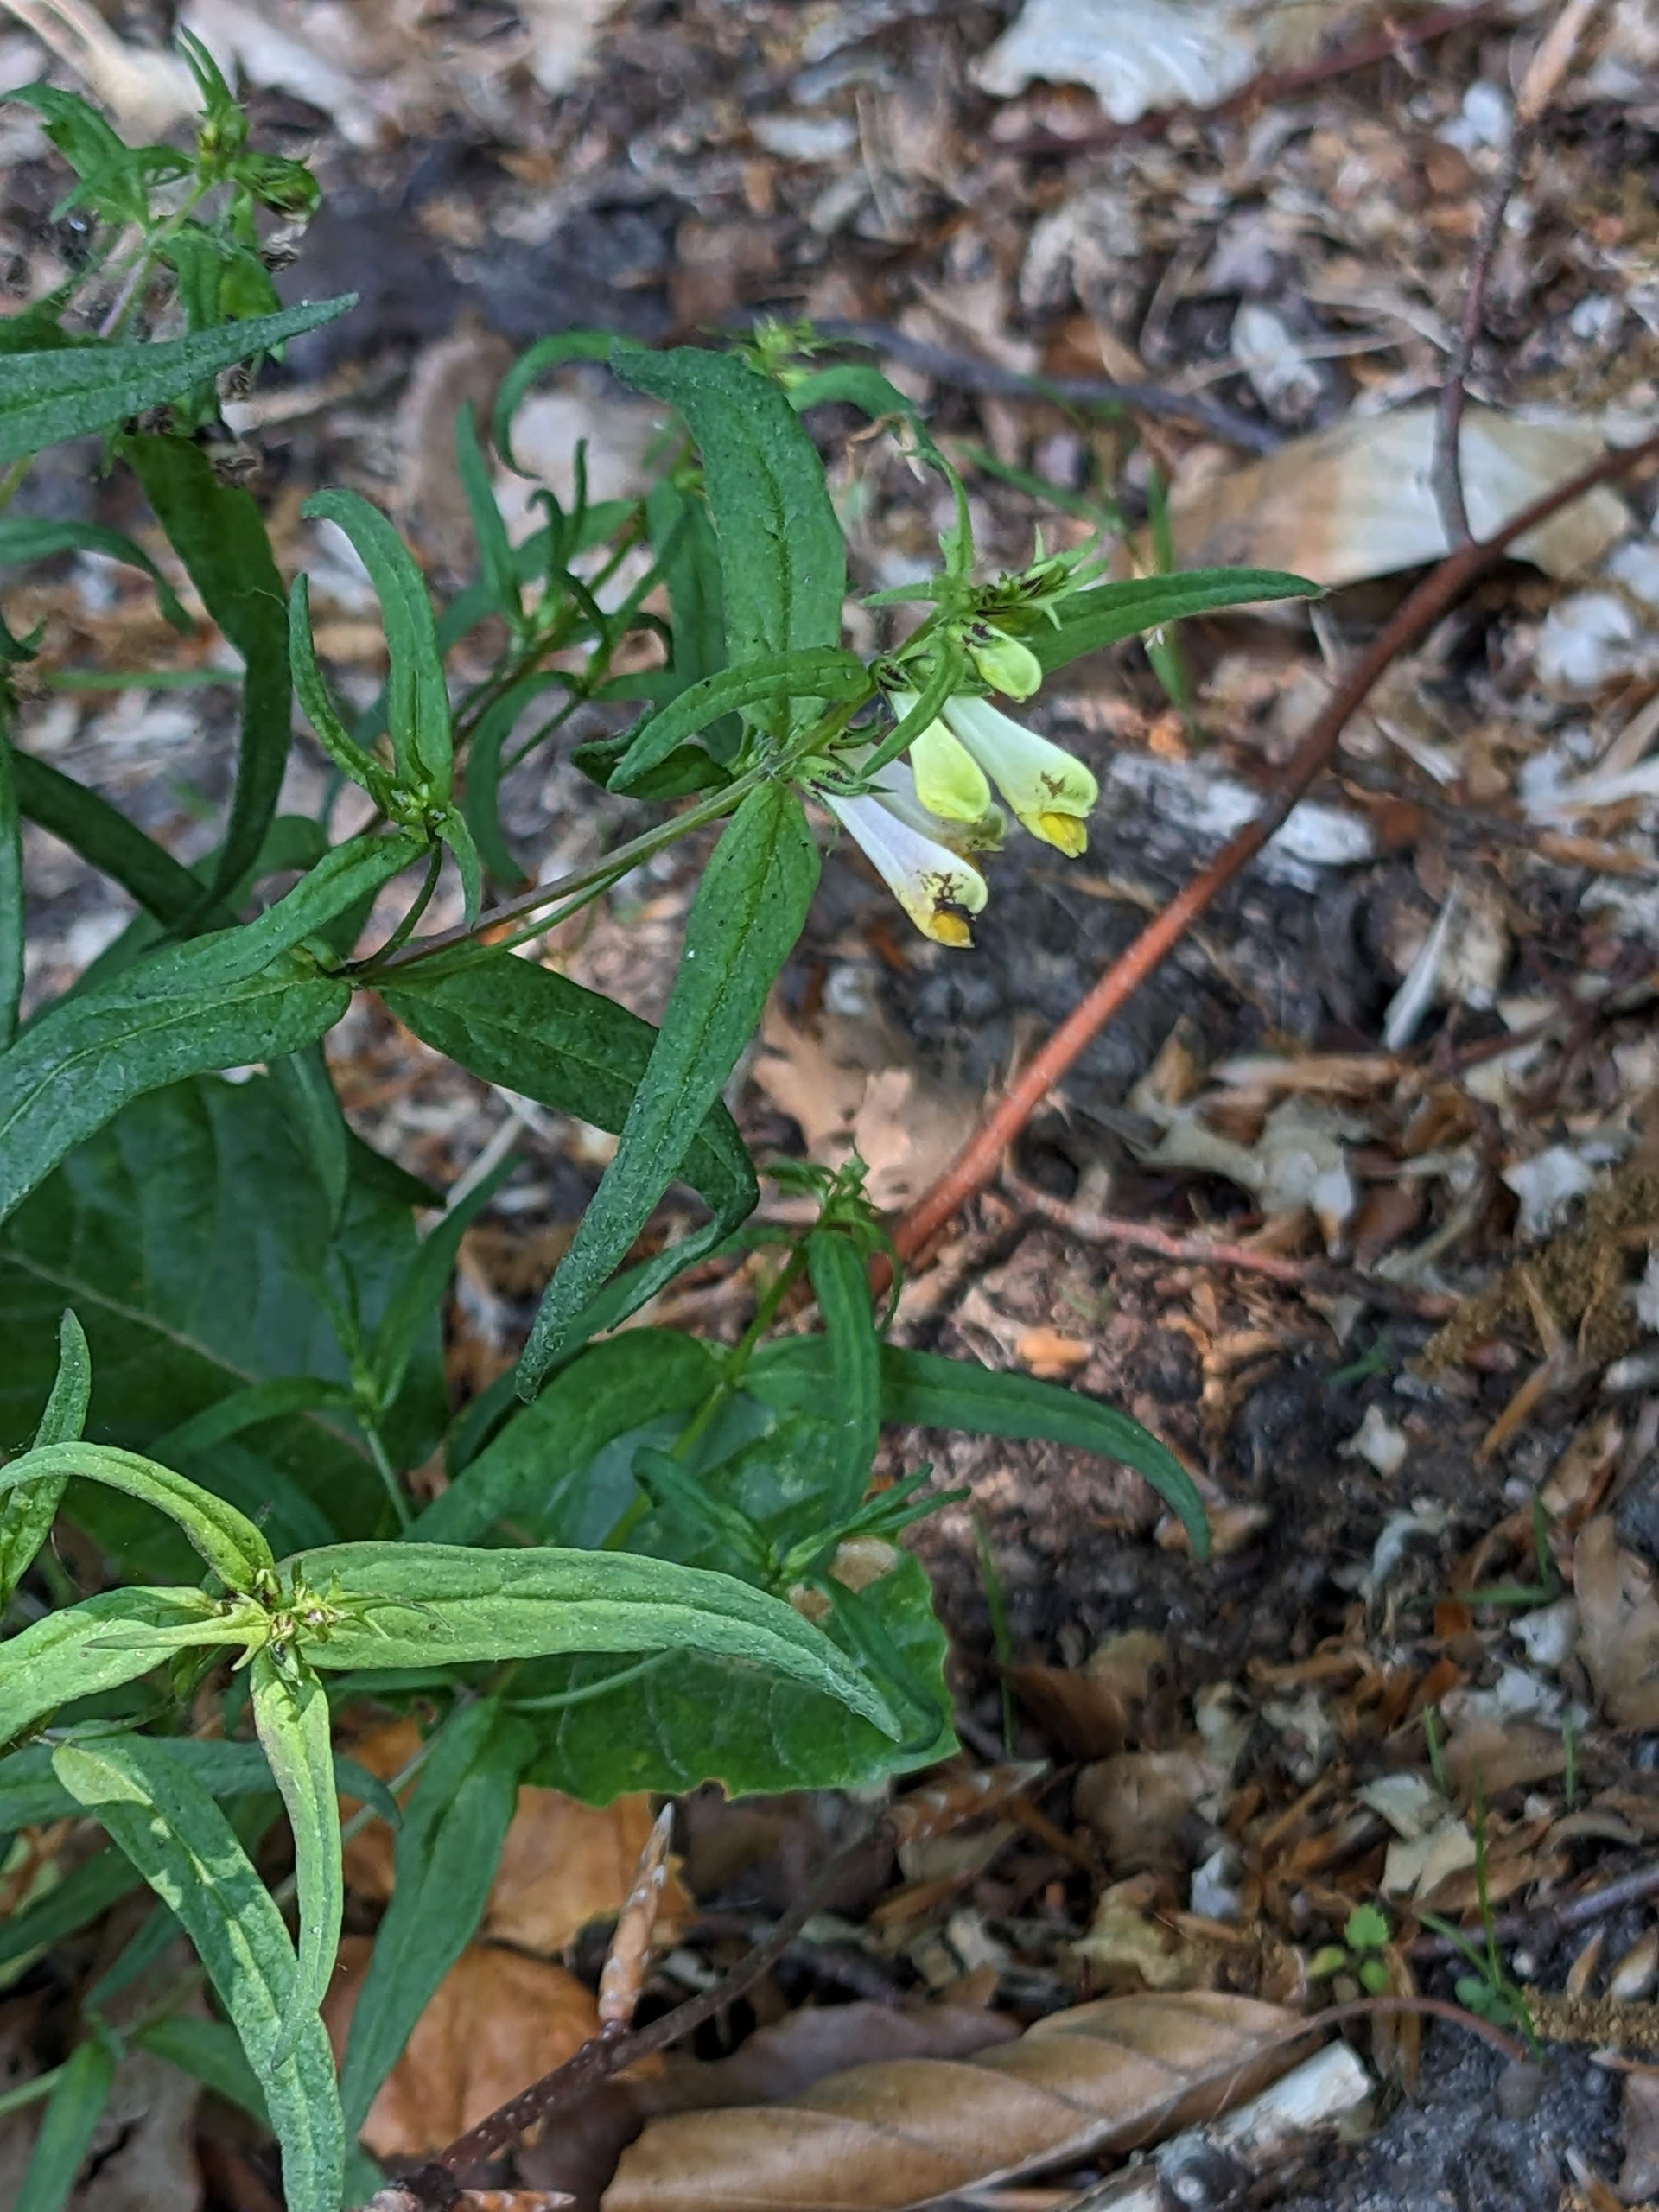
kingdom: Plantae
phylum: Tracheophyta
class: Magnoliopsida
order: Lamiales
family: Orobanchaceae
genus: Melampyrum
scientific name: Melampyrum pratense
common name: Almindelig kohvede
